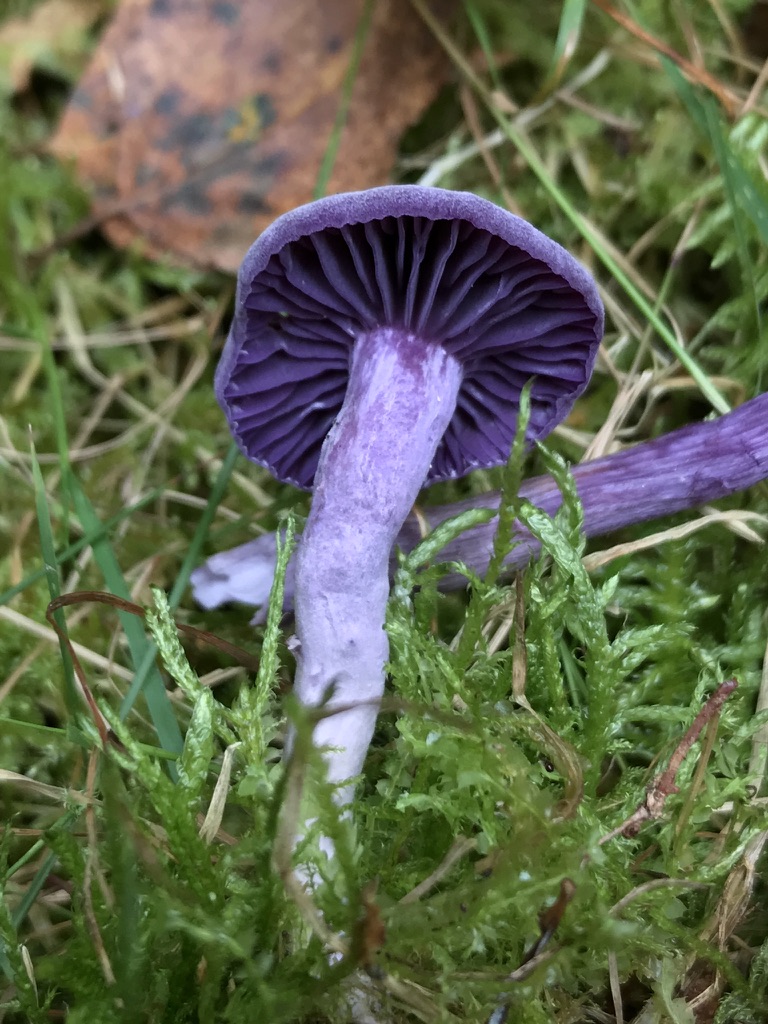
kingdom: Fungi
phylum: Basidiomycota
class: Agaricomycetes
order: Agaricales
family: Hydnangiaceae
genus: Laccaria
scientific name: Laccaria amethystina
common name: violet ametysthat
